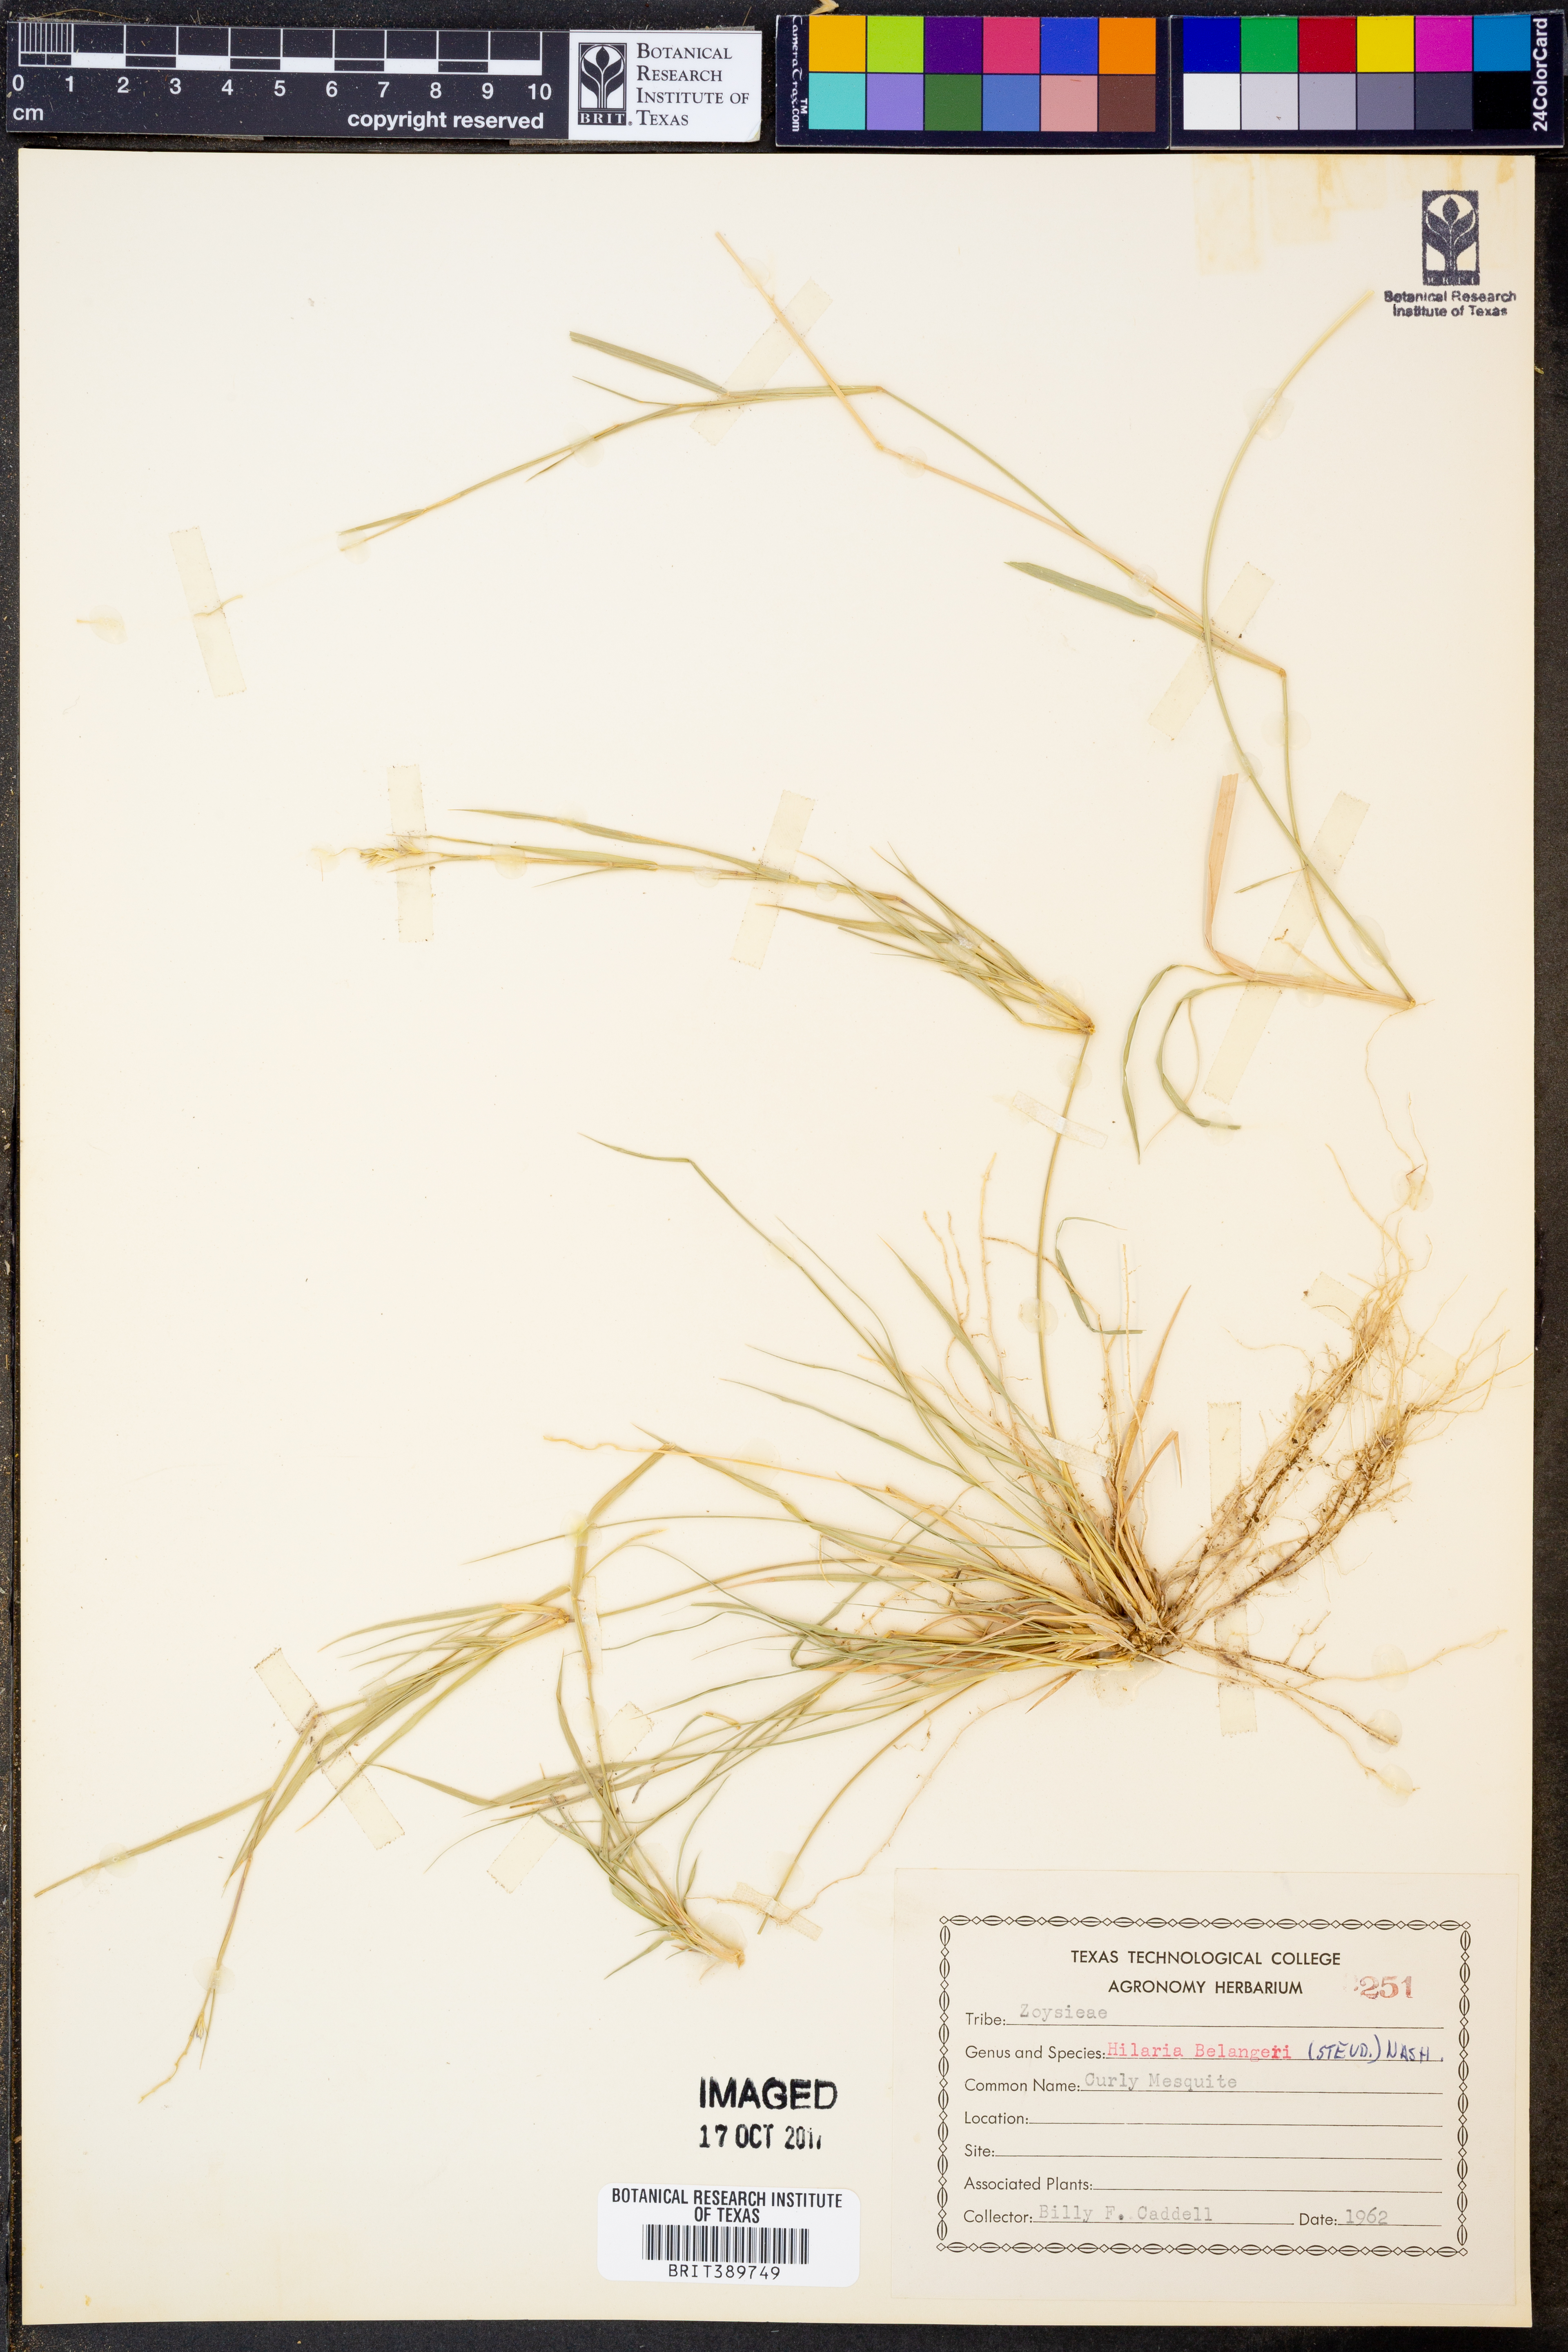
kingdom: Plantae
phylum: Tracheophyta
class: Liliopsida
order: Poales
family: Poaceae
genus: Hilaria
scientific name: Hilaria belangeri
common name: Curly-mesquite
